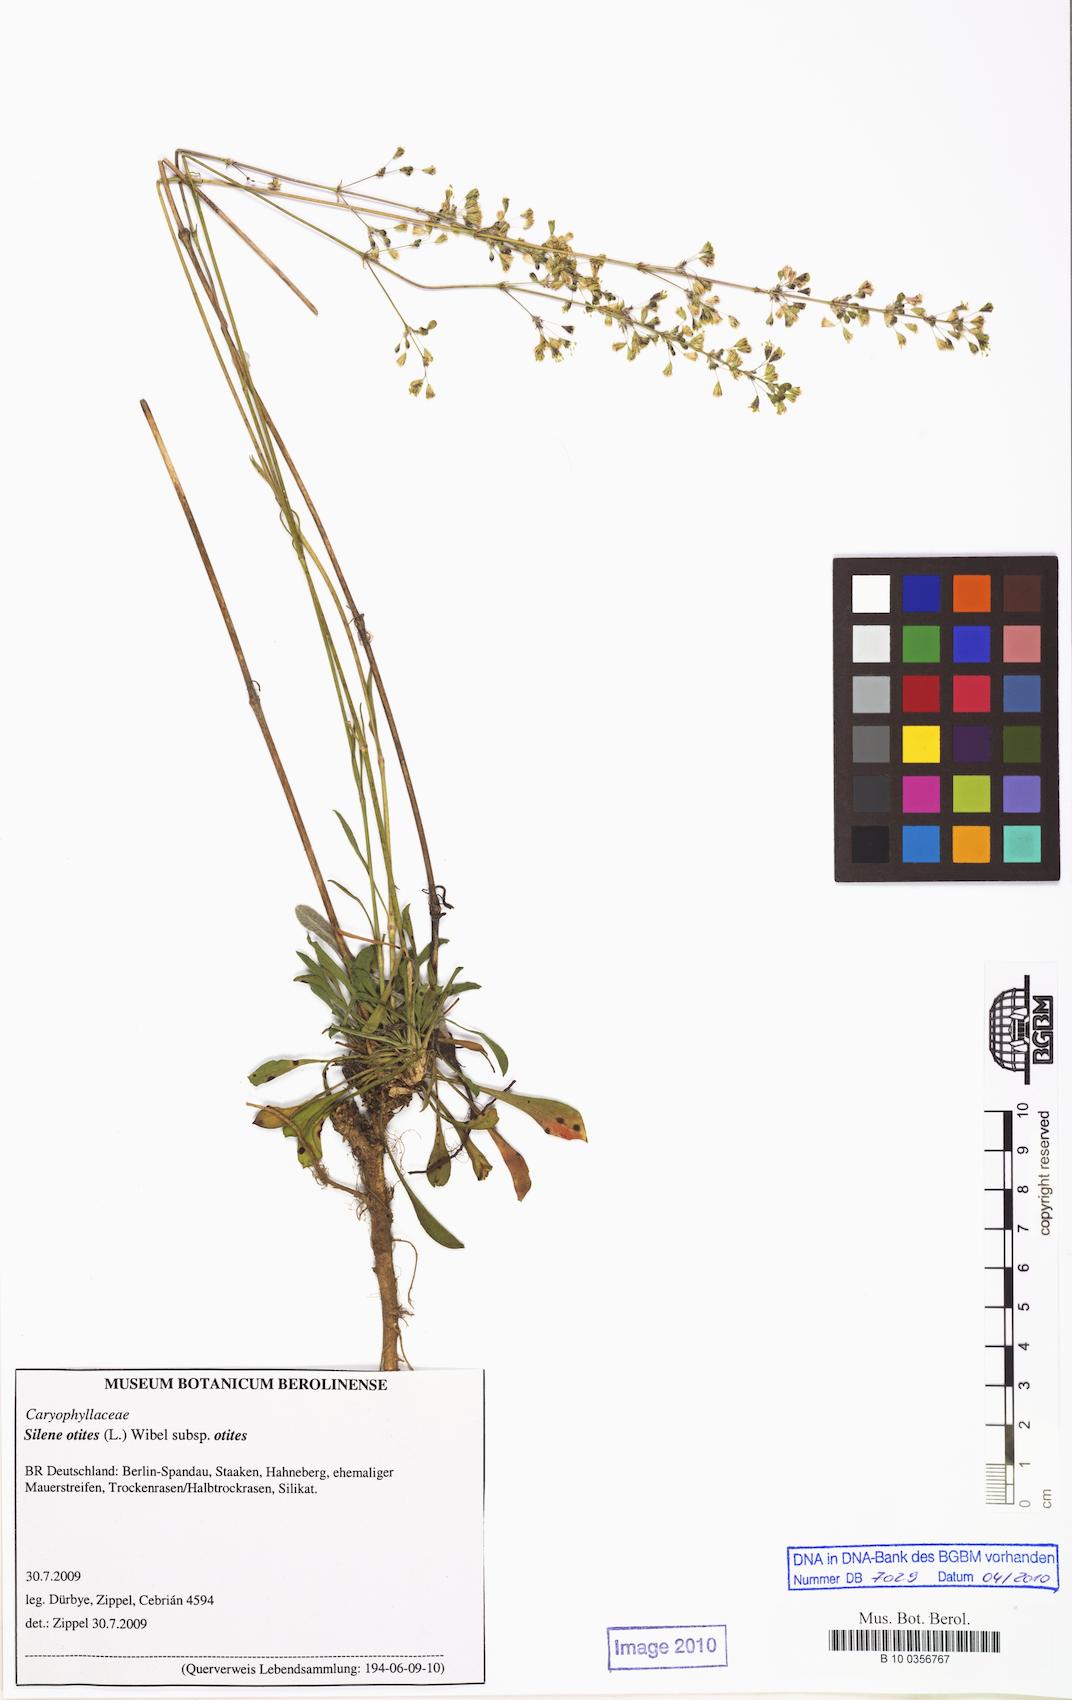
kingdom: Plantae
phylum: Tracheophyta
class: Magnoliopsida
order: Caryophyllales
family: Caryophyllaceae
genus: Silene
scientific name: Silene otites
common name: Spanish catchfly
